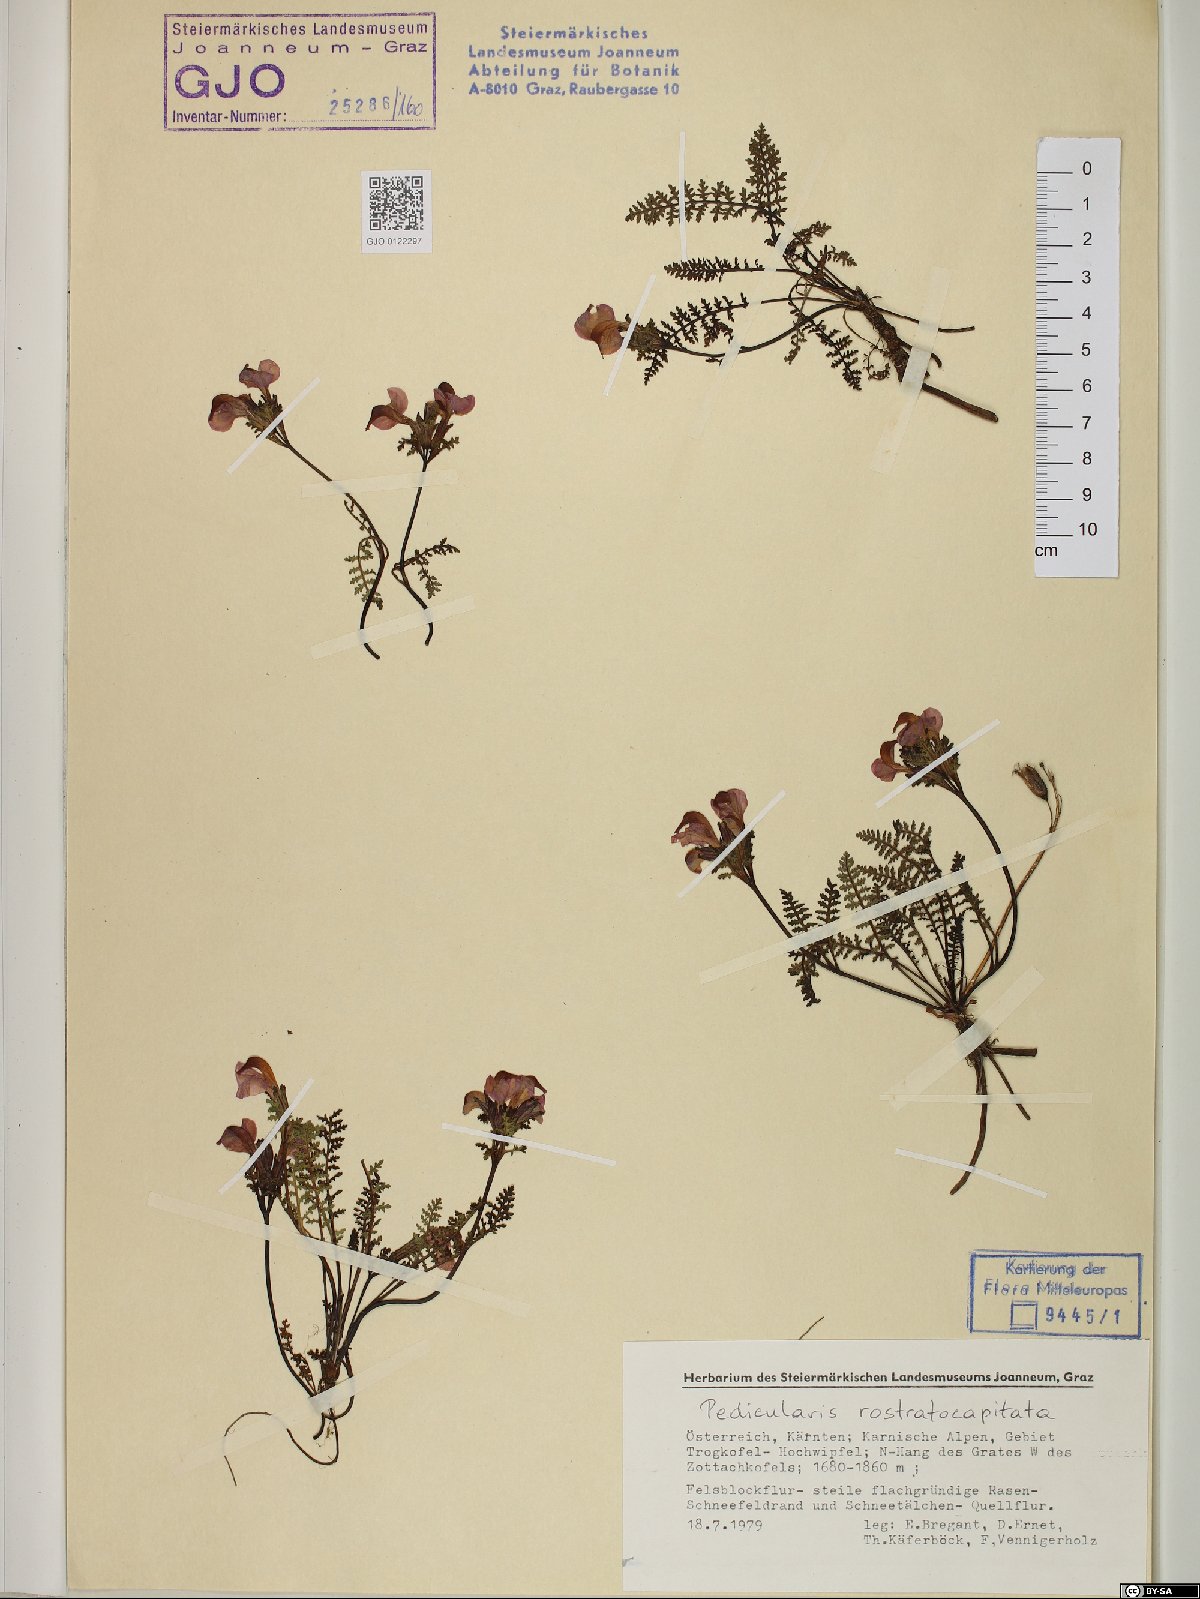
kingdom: Plantae
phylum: Tracheophyta
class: Magnoliopsida
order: Lamiales
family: Orobanchaceae
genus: Pedicularis
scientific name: Pedicularis rostratocapitata
